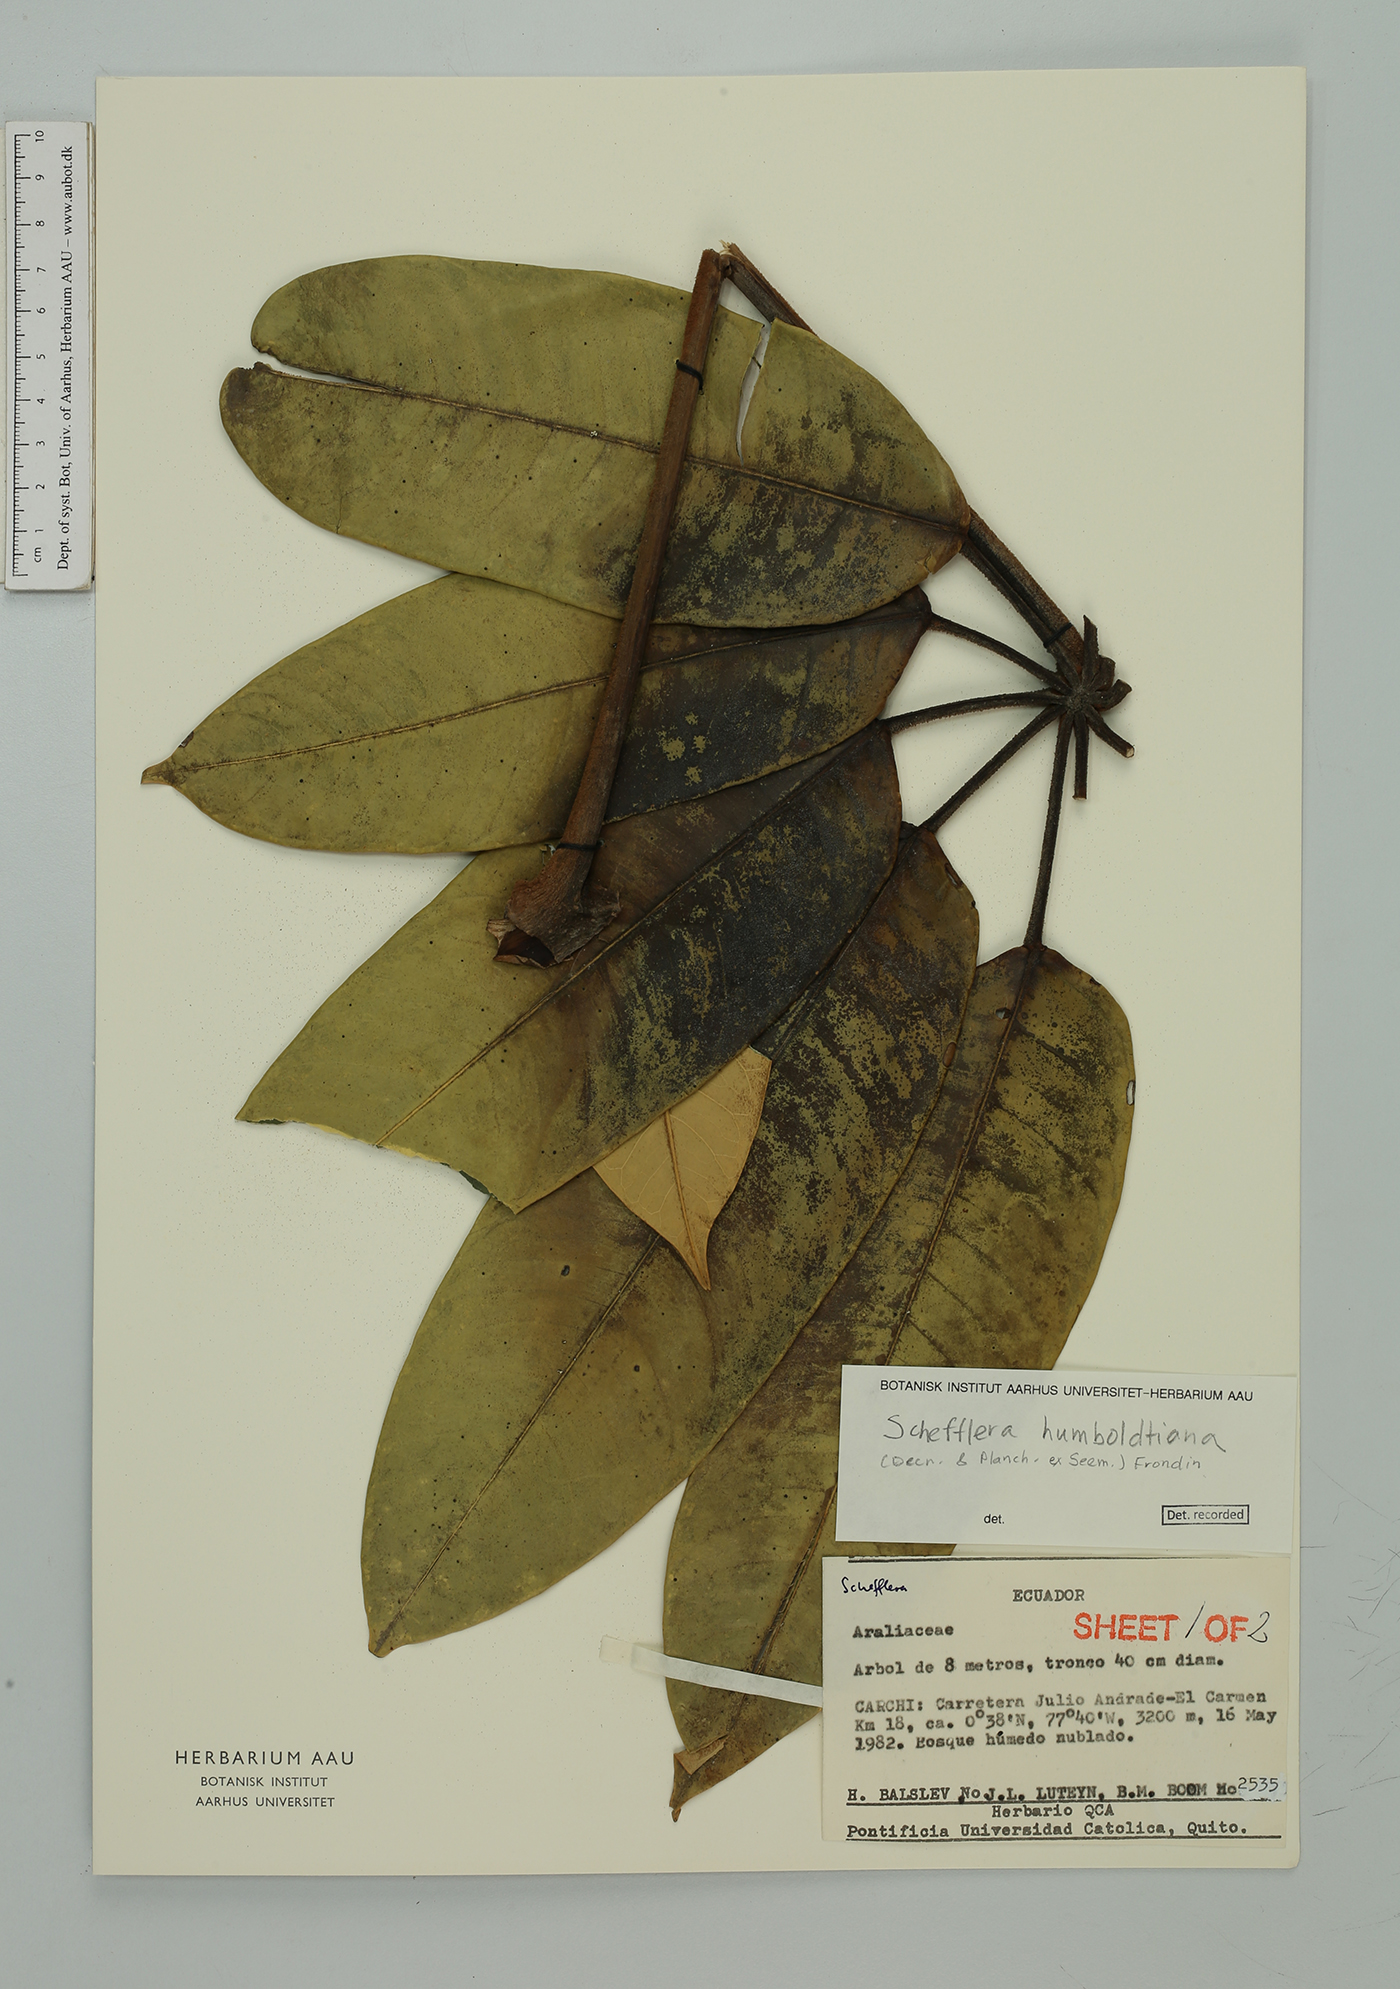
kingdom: Plantae
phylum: Tracheophyta
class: Magnoliopsida
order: Apiales
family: Araliaceae
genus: Sciodaphyllum
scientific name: Sciodaphyllum basiorevolutum
